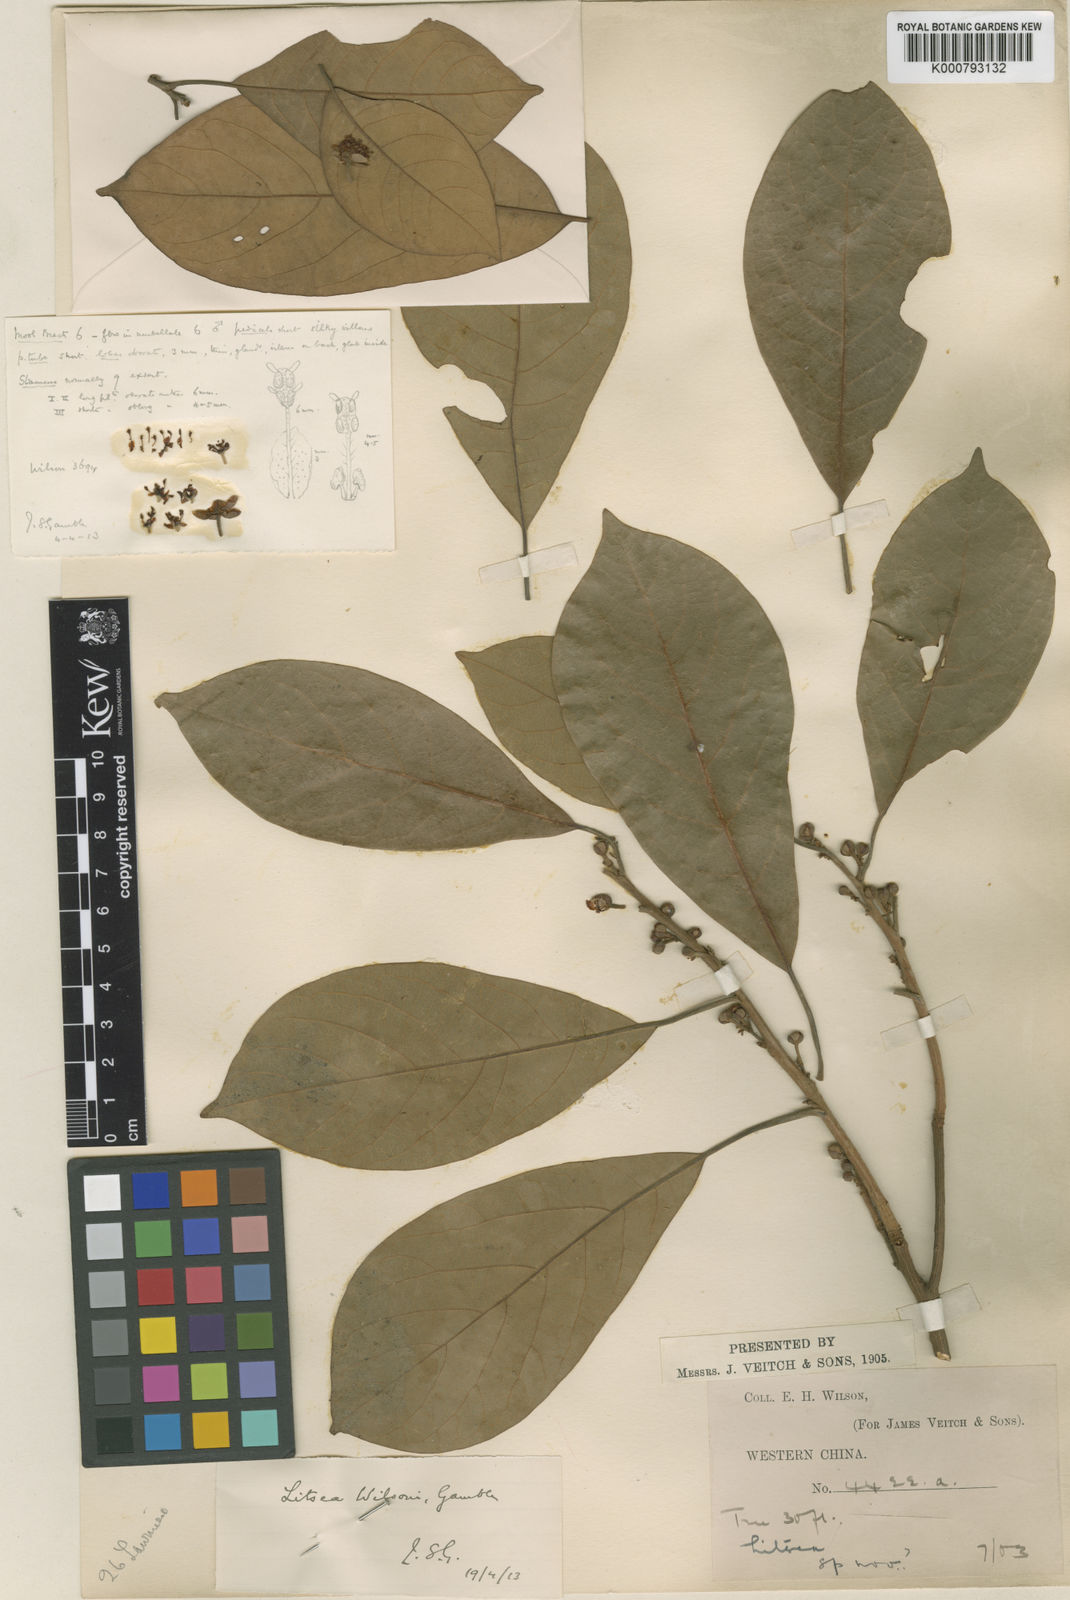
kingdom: Plantae
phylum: Tracheophyta
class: Magnoliopsida
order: Laurales
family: Lauraceae
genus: Litsea
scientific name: Litsea wilsonii
